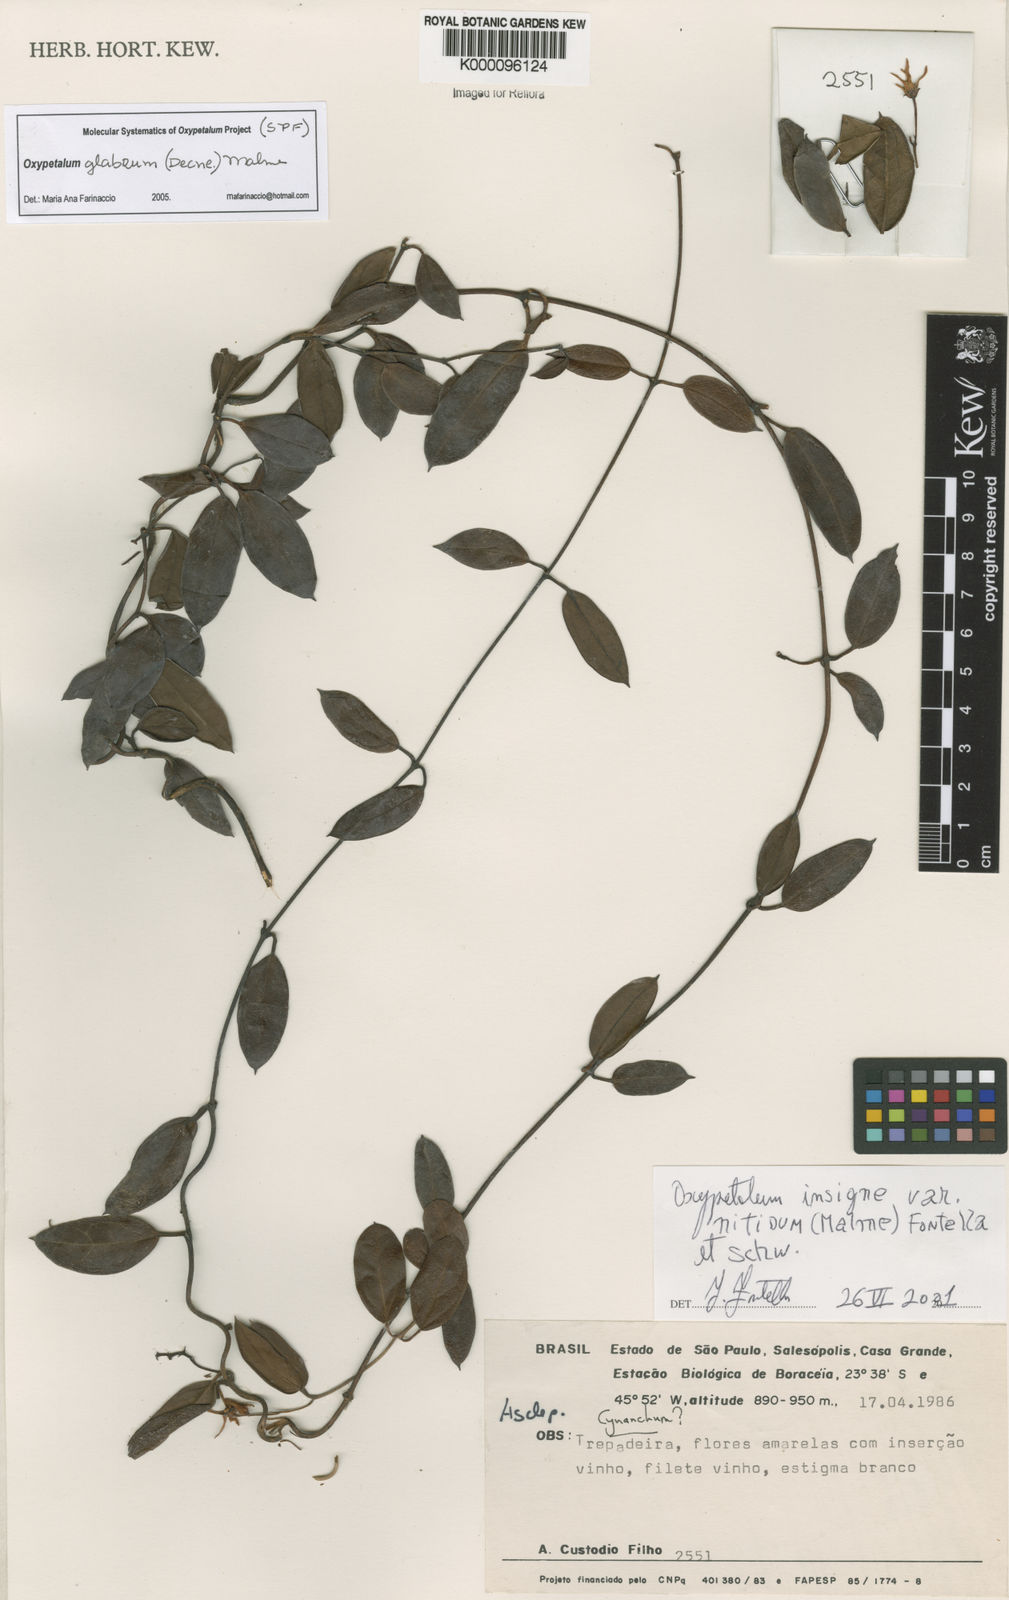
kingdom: Plantae
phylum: Tracheophyta
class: Magnoliopsida
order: Gentianales
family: Apocynaceae
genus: Oxypetalum
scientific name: Oxypetalum nitidum
